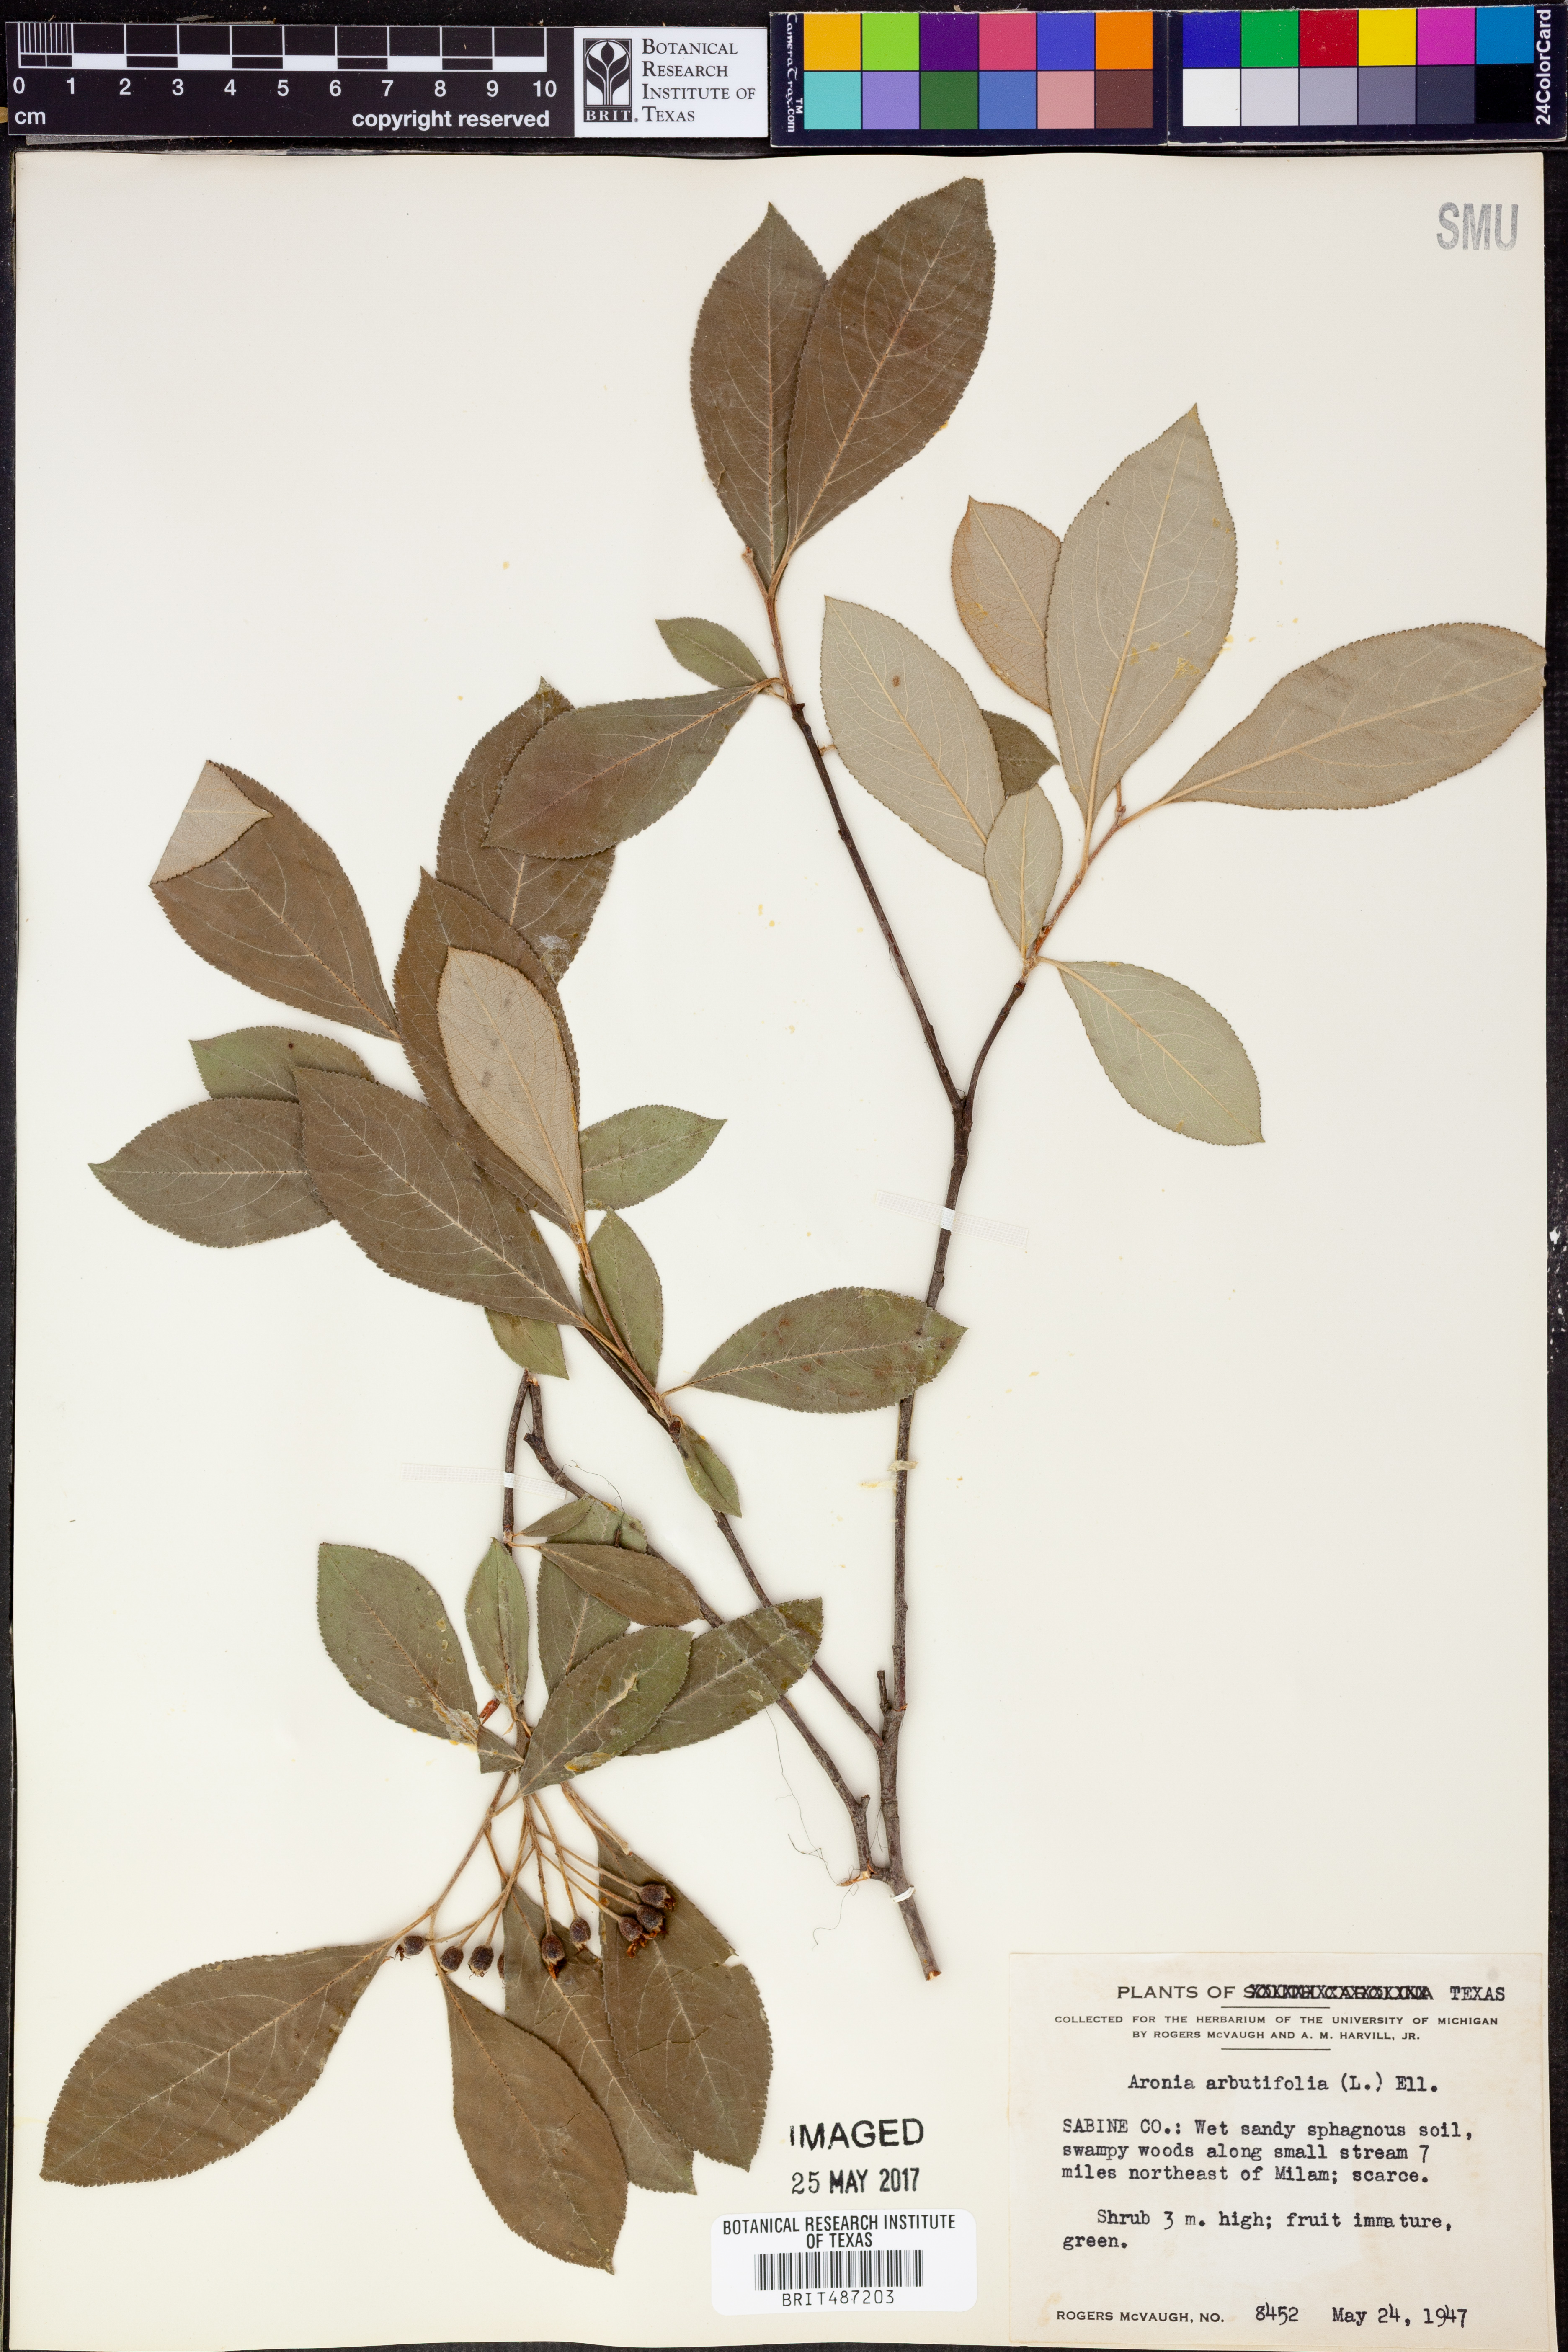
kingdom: Plantae
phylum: Tracheophyta
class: Magnoliopsida
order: Rosales
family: Rosaceae
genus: Aronia
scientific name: Aronia arbutifolia
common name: Red chokeberry
